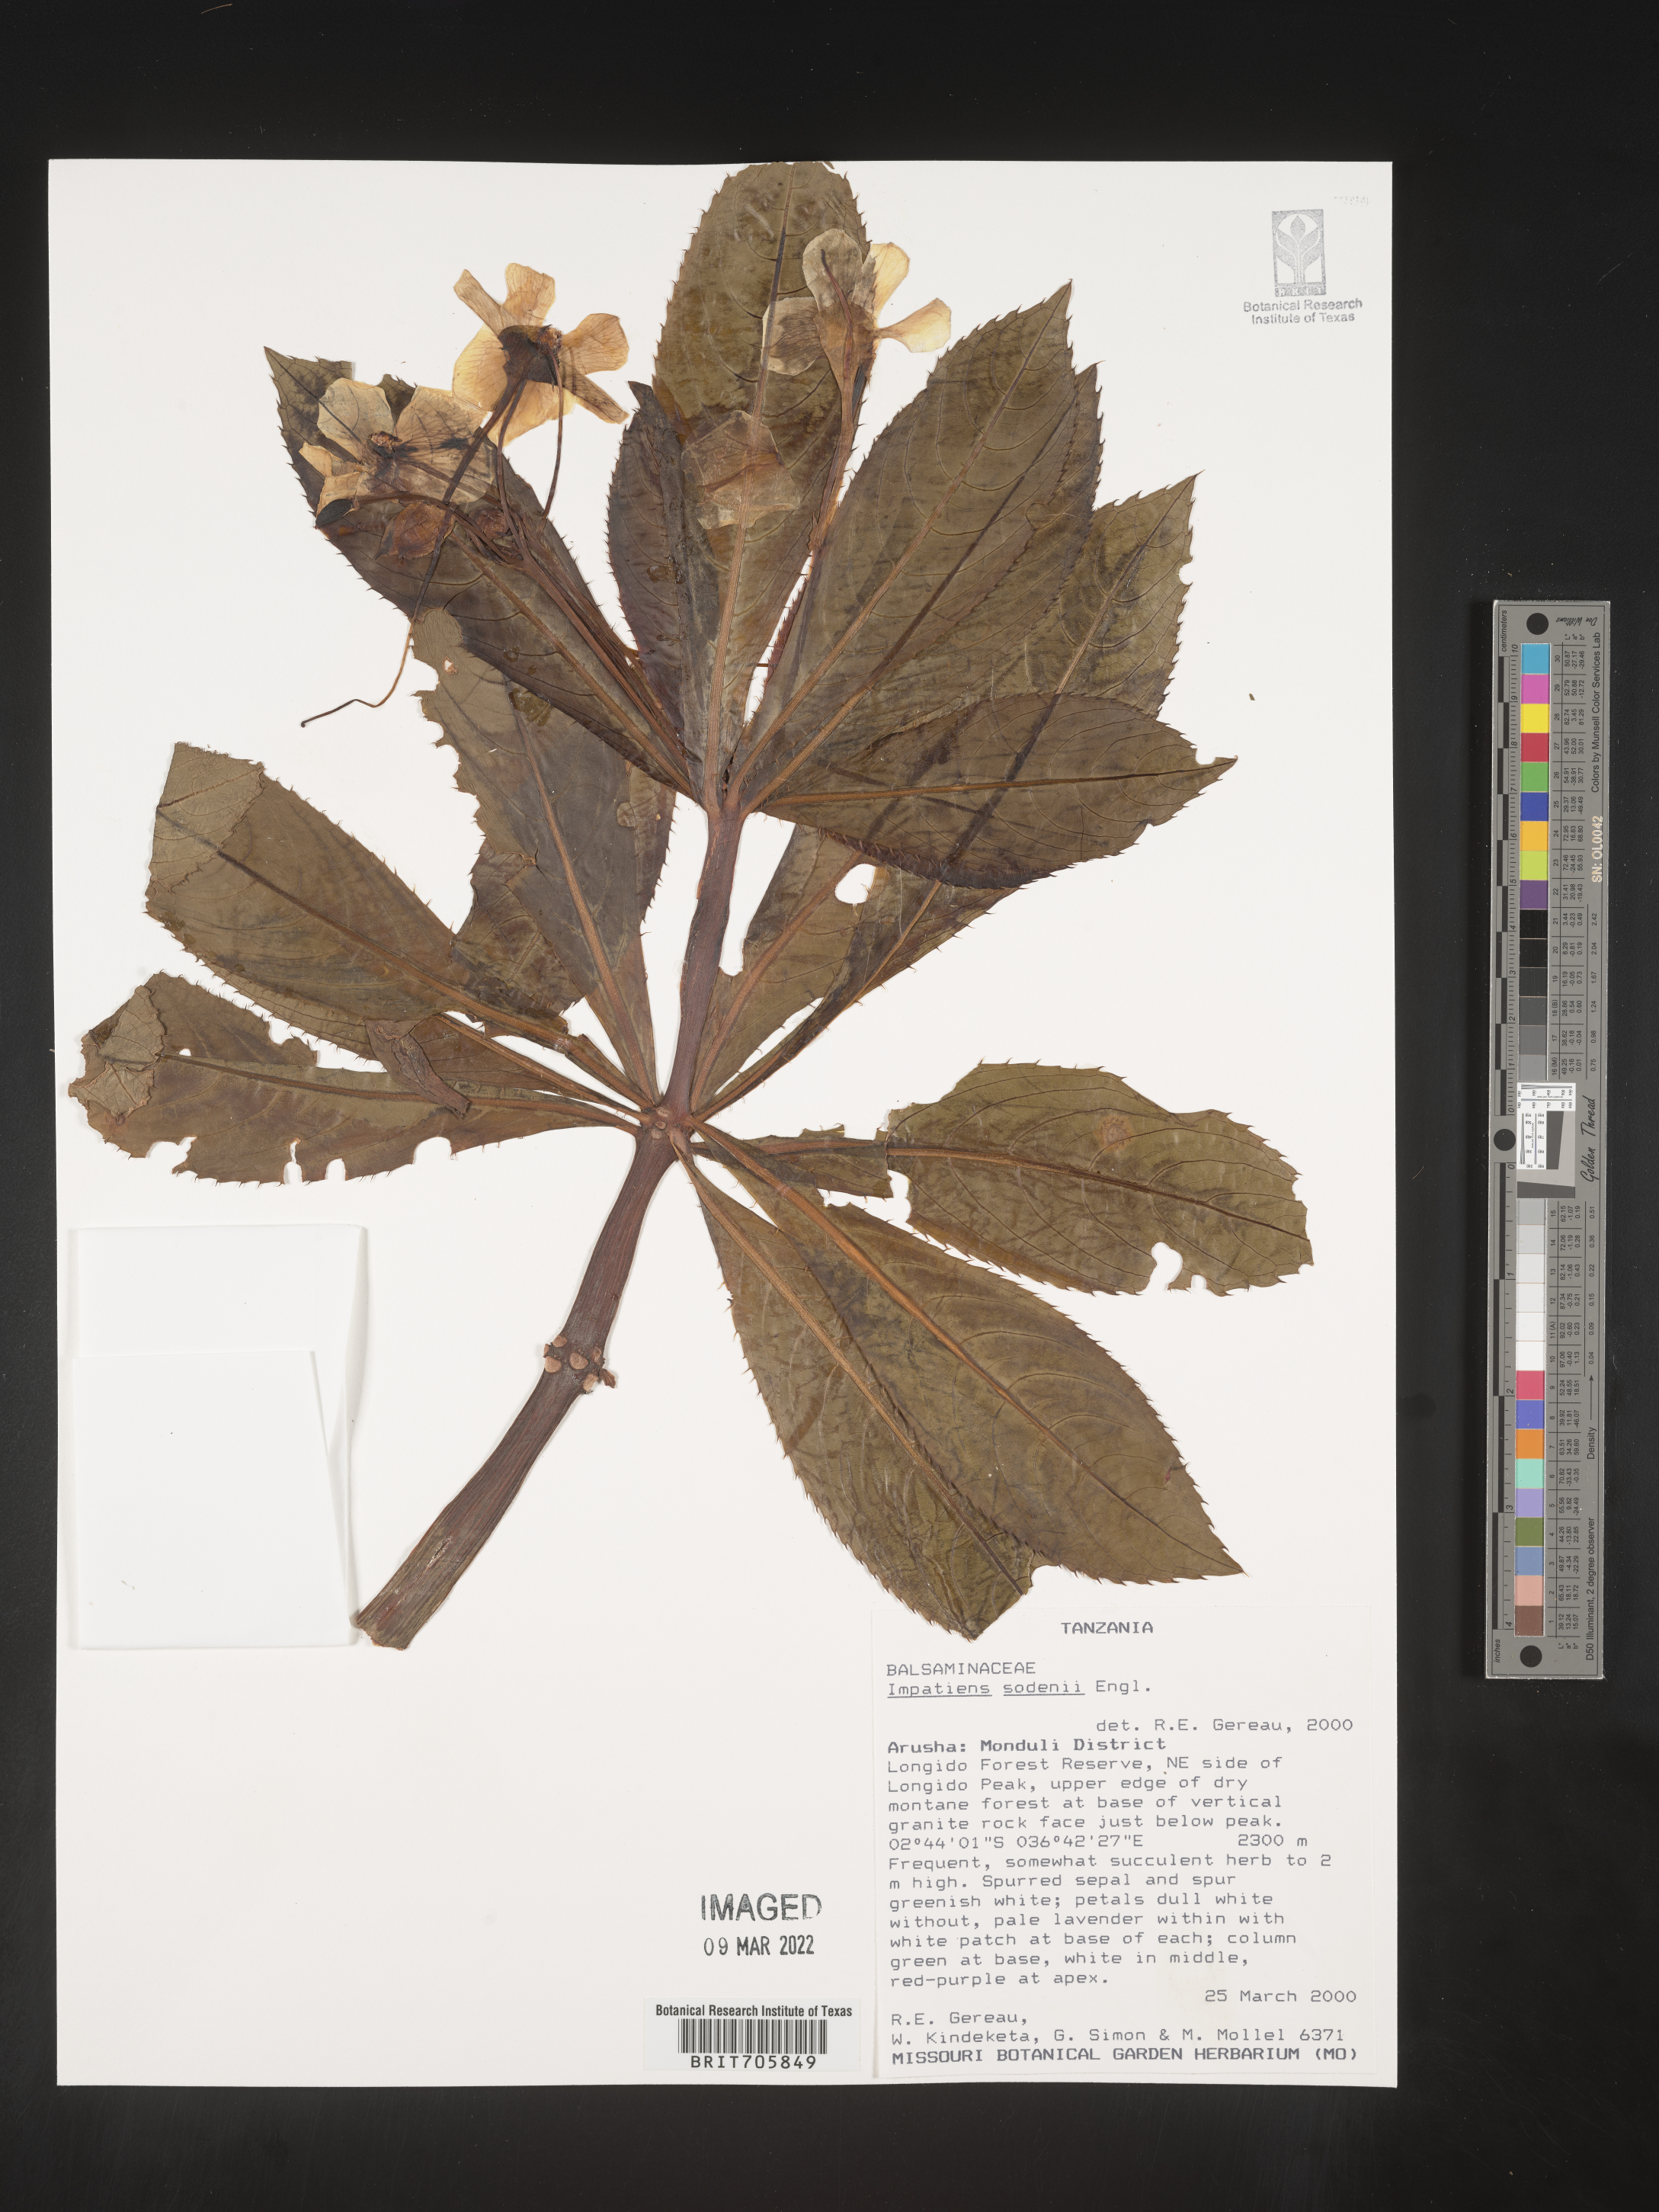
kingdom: Plantae
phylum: Tracheophyta
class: Magnoliopsida
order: Ericales
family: Balsaminaceae
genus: Impatiens
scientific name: Impatiens
